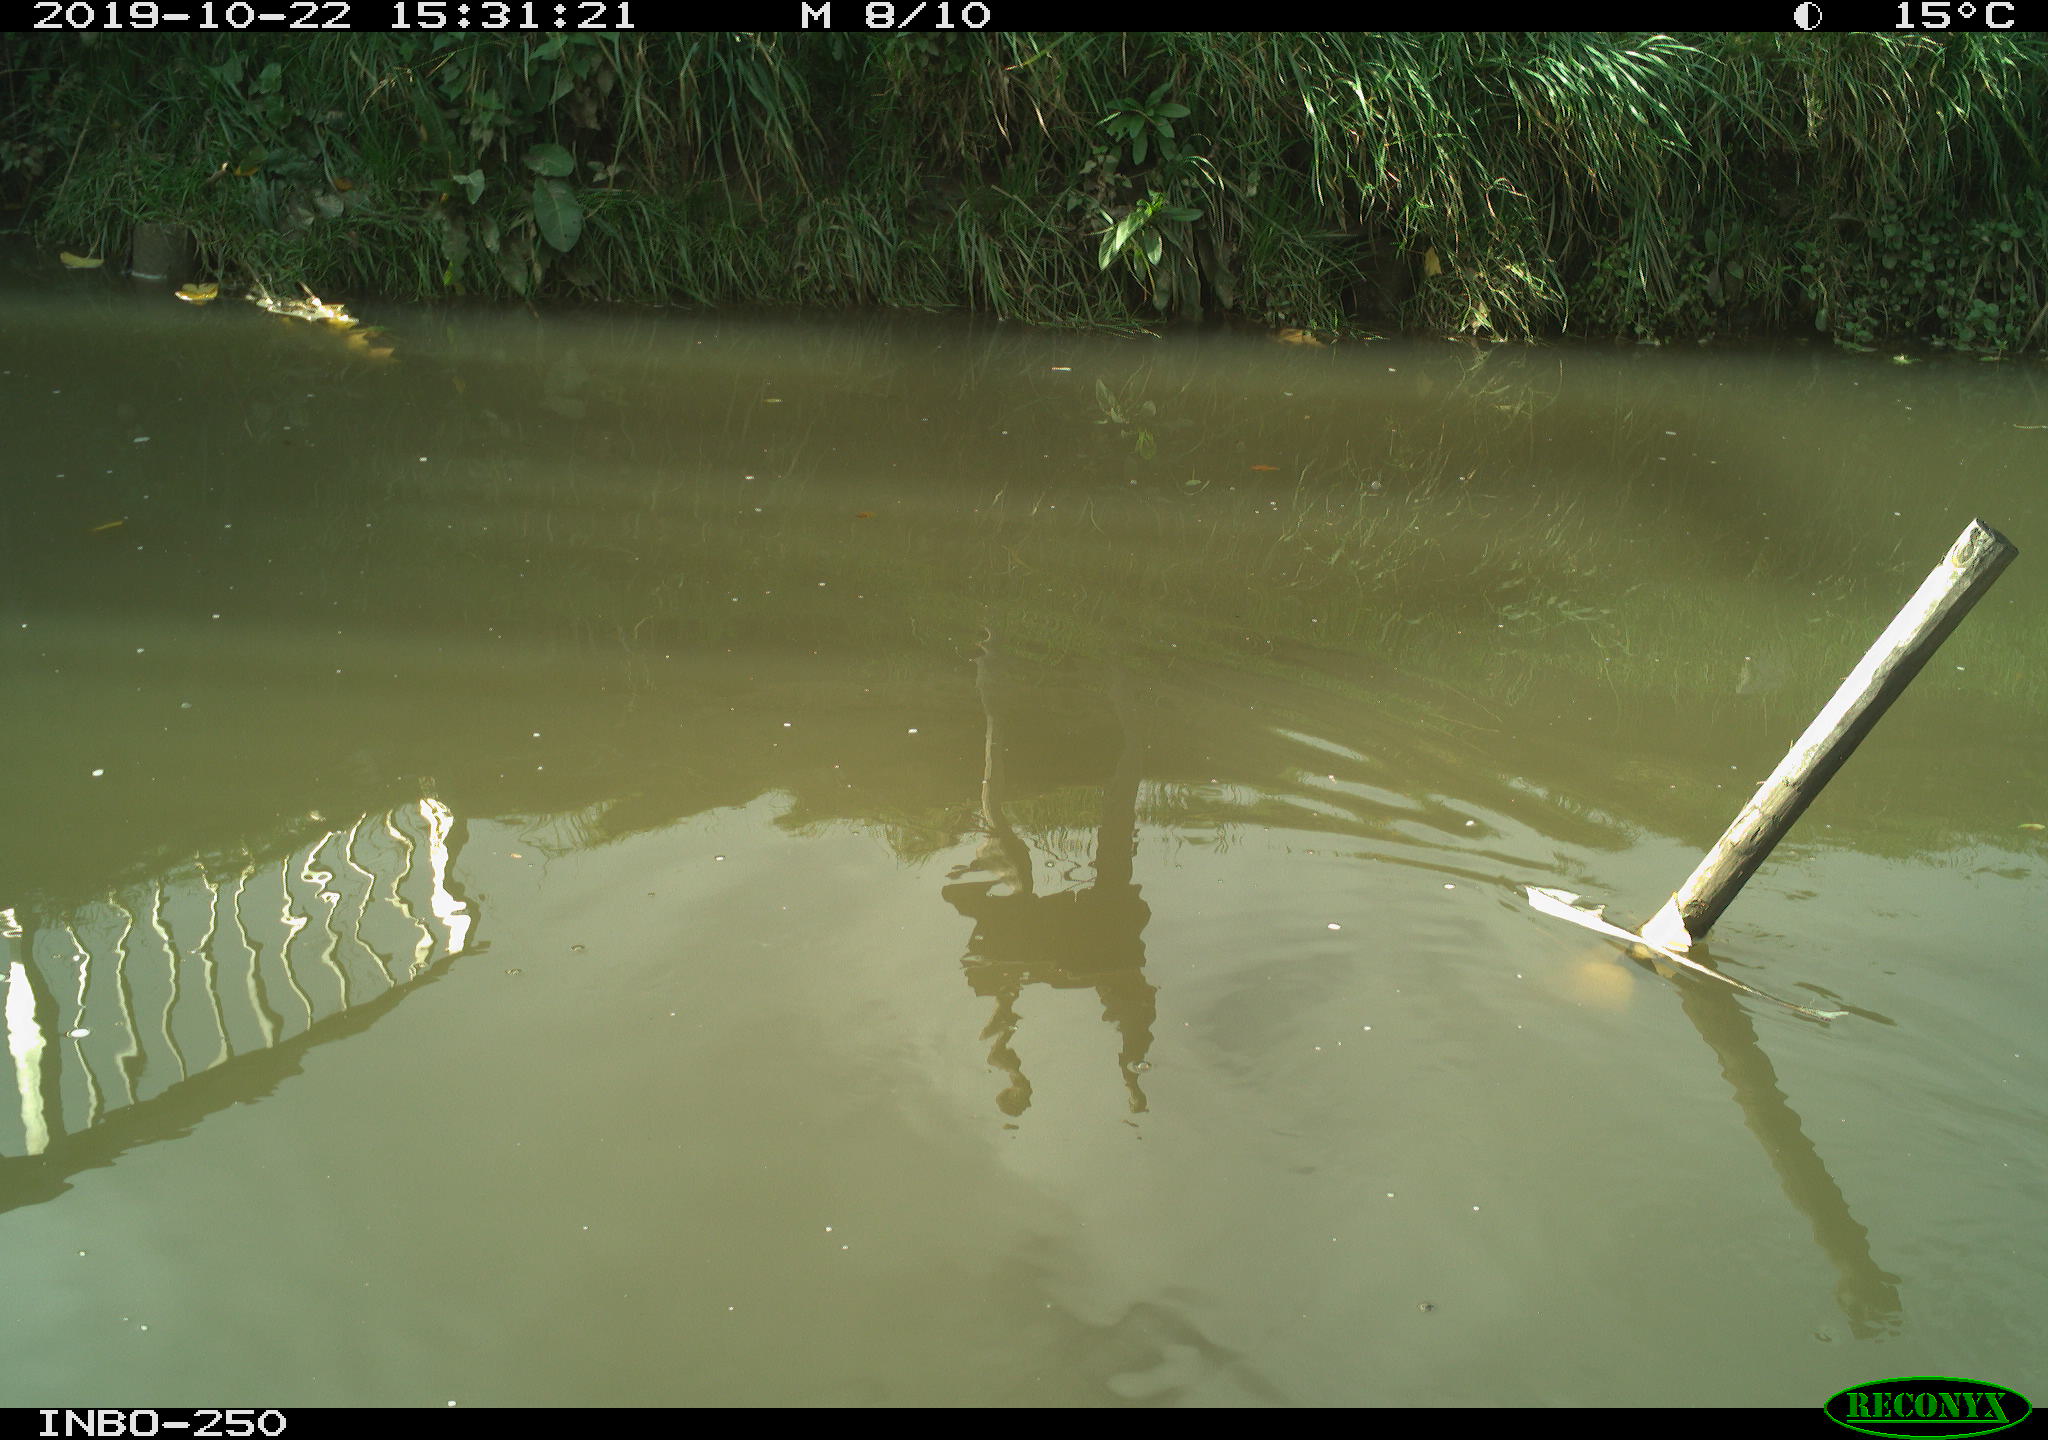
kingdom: Animalia
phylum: Chordata
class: Aves
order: Gruiformes
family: Rallidae
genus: Gallinula
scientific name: Gallinula chloropus
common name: Common moorhen
